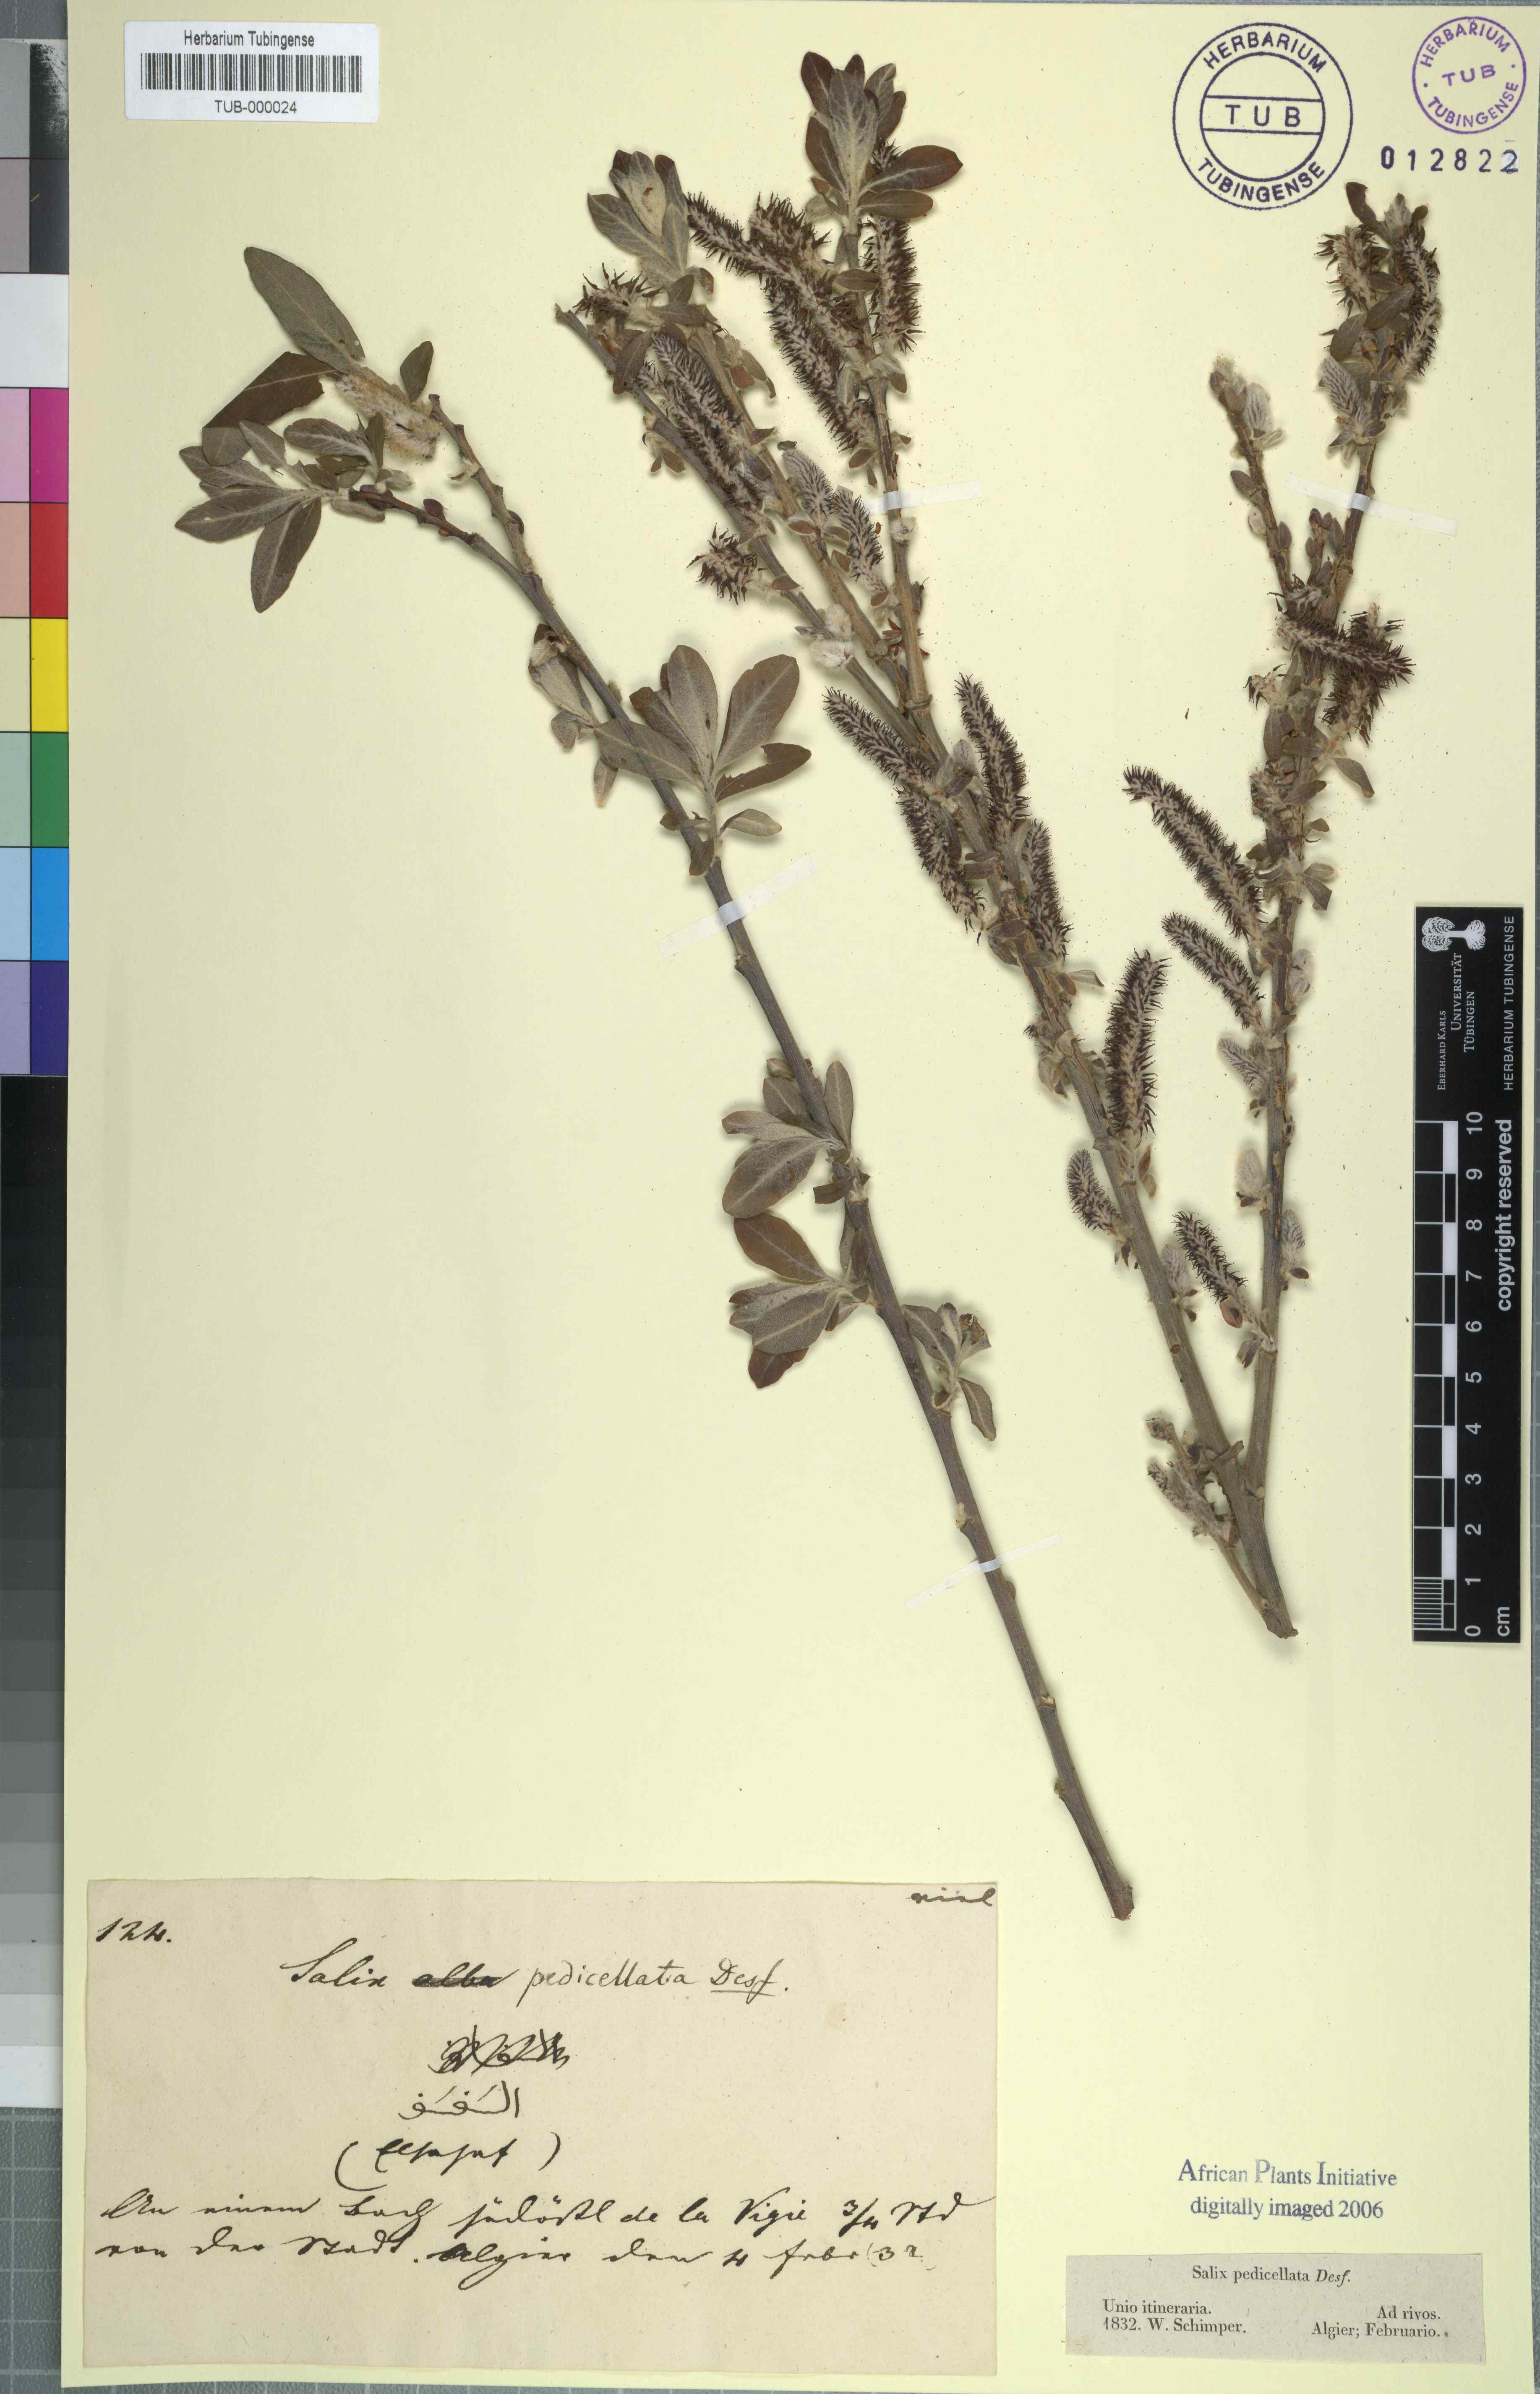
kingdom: Plantae
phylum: Tracheophyta
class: Magnoliopsida
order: Malpighiales
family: Salicaceae
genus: Salix
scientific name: Salix pedicellata
